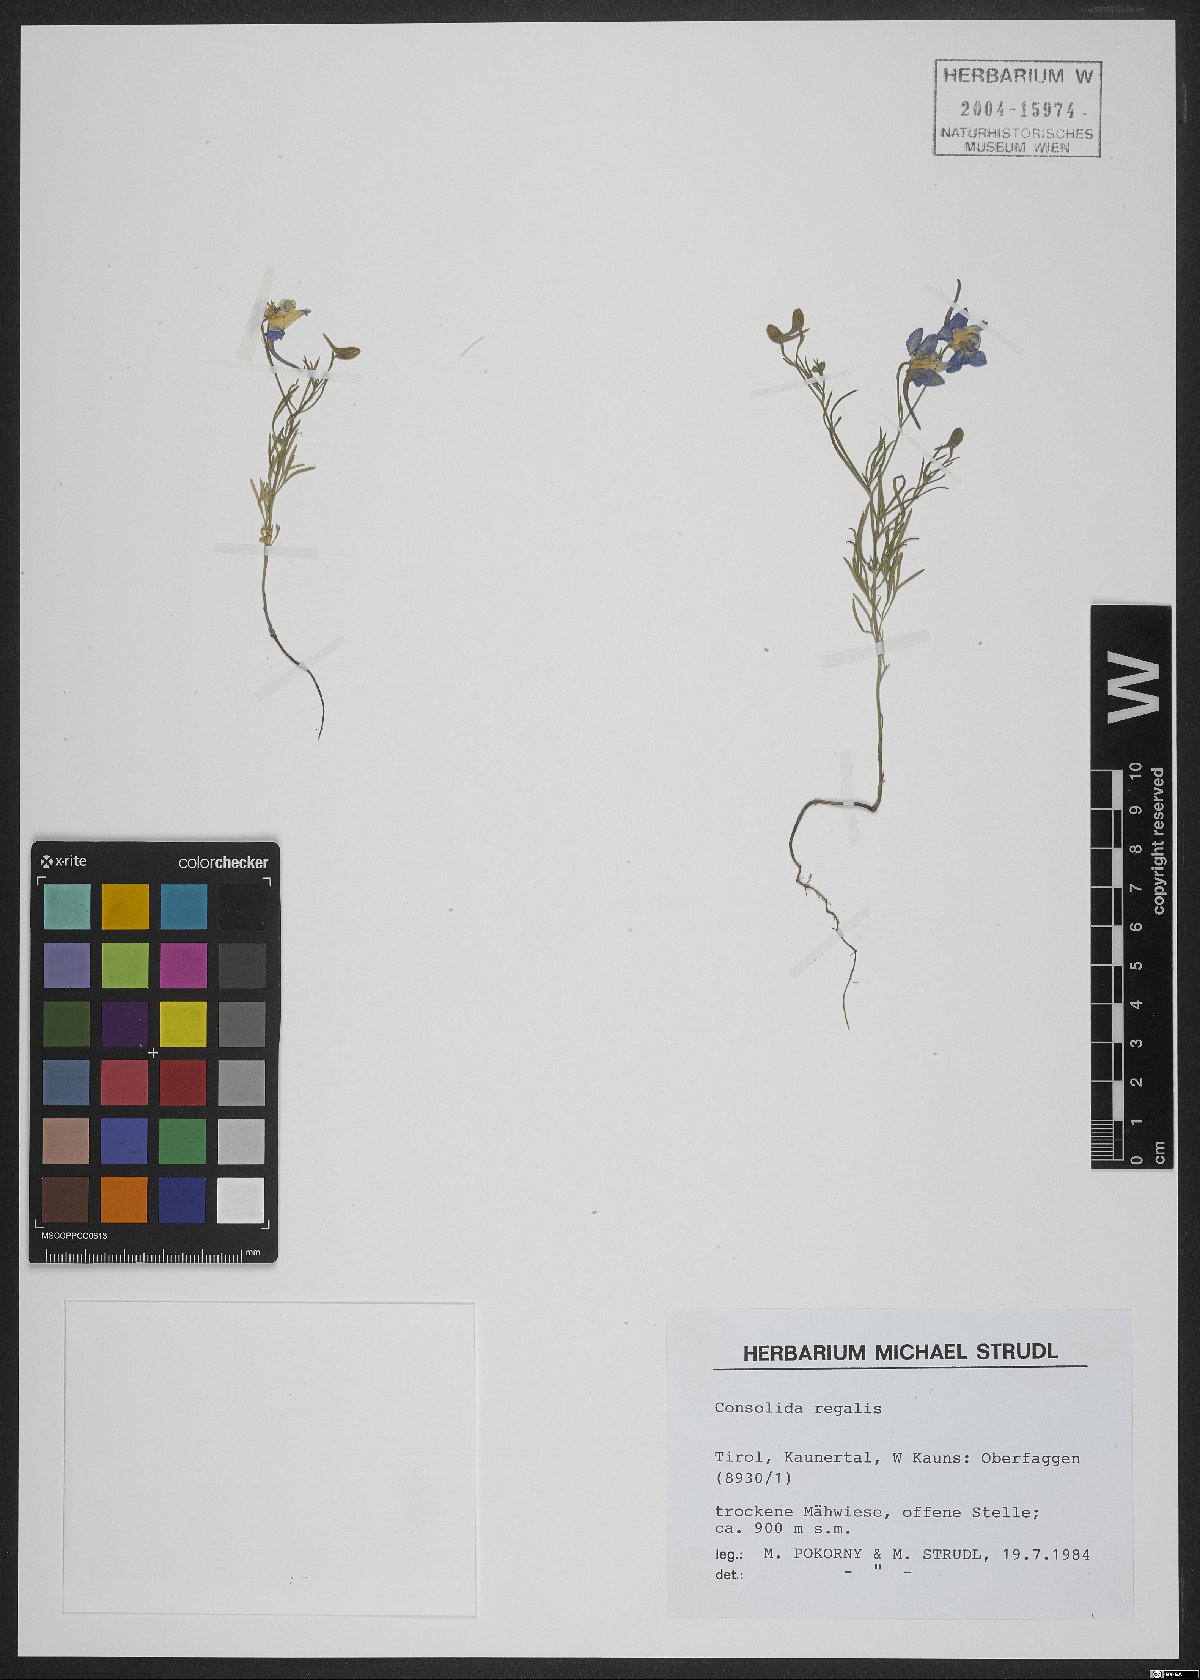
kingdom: Plantae
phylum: Tracheophyta
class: Magnoliopsida
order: Ranunculales
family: Ranunculaceae
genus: Delphinium
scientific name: Delphinium consolida
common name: Branching larkspur
